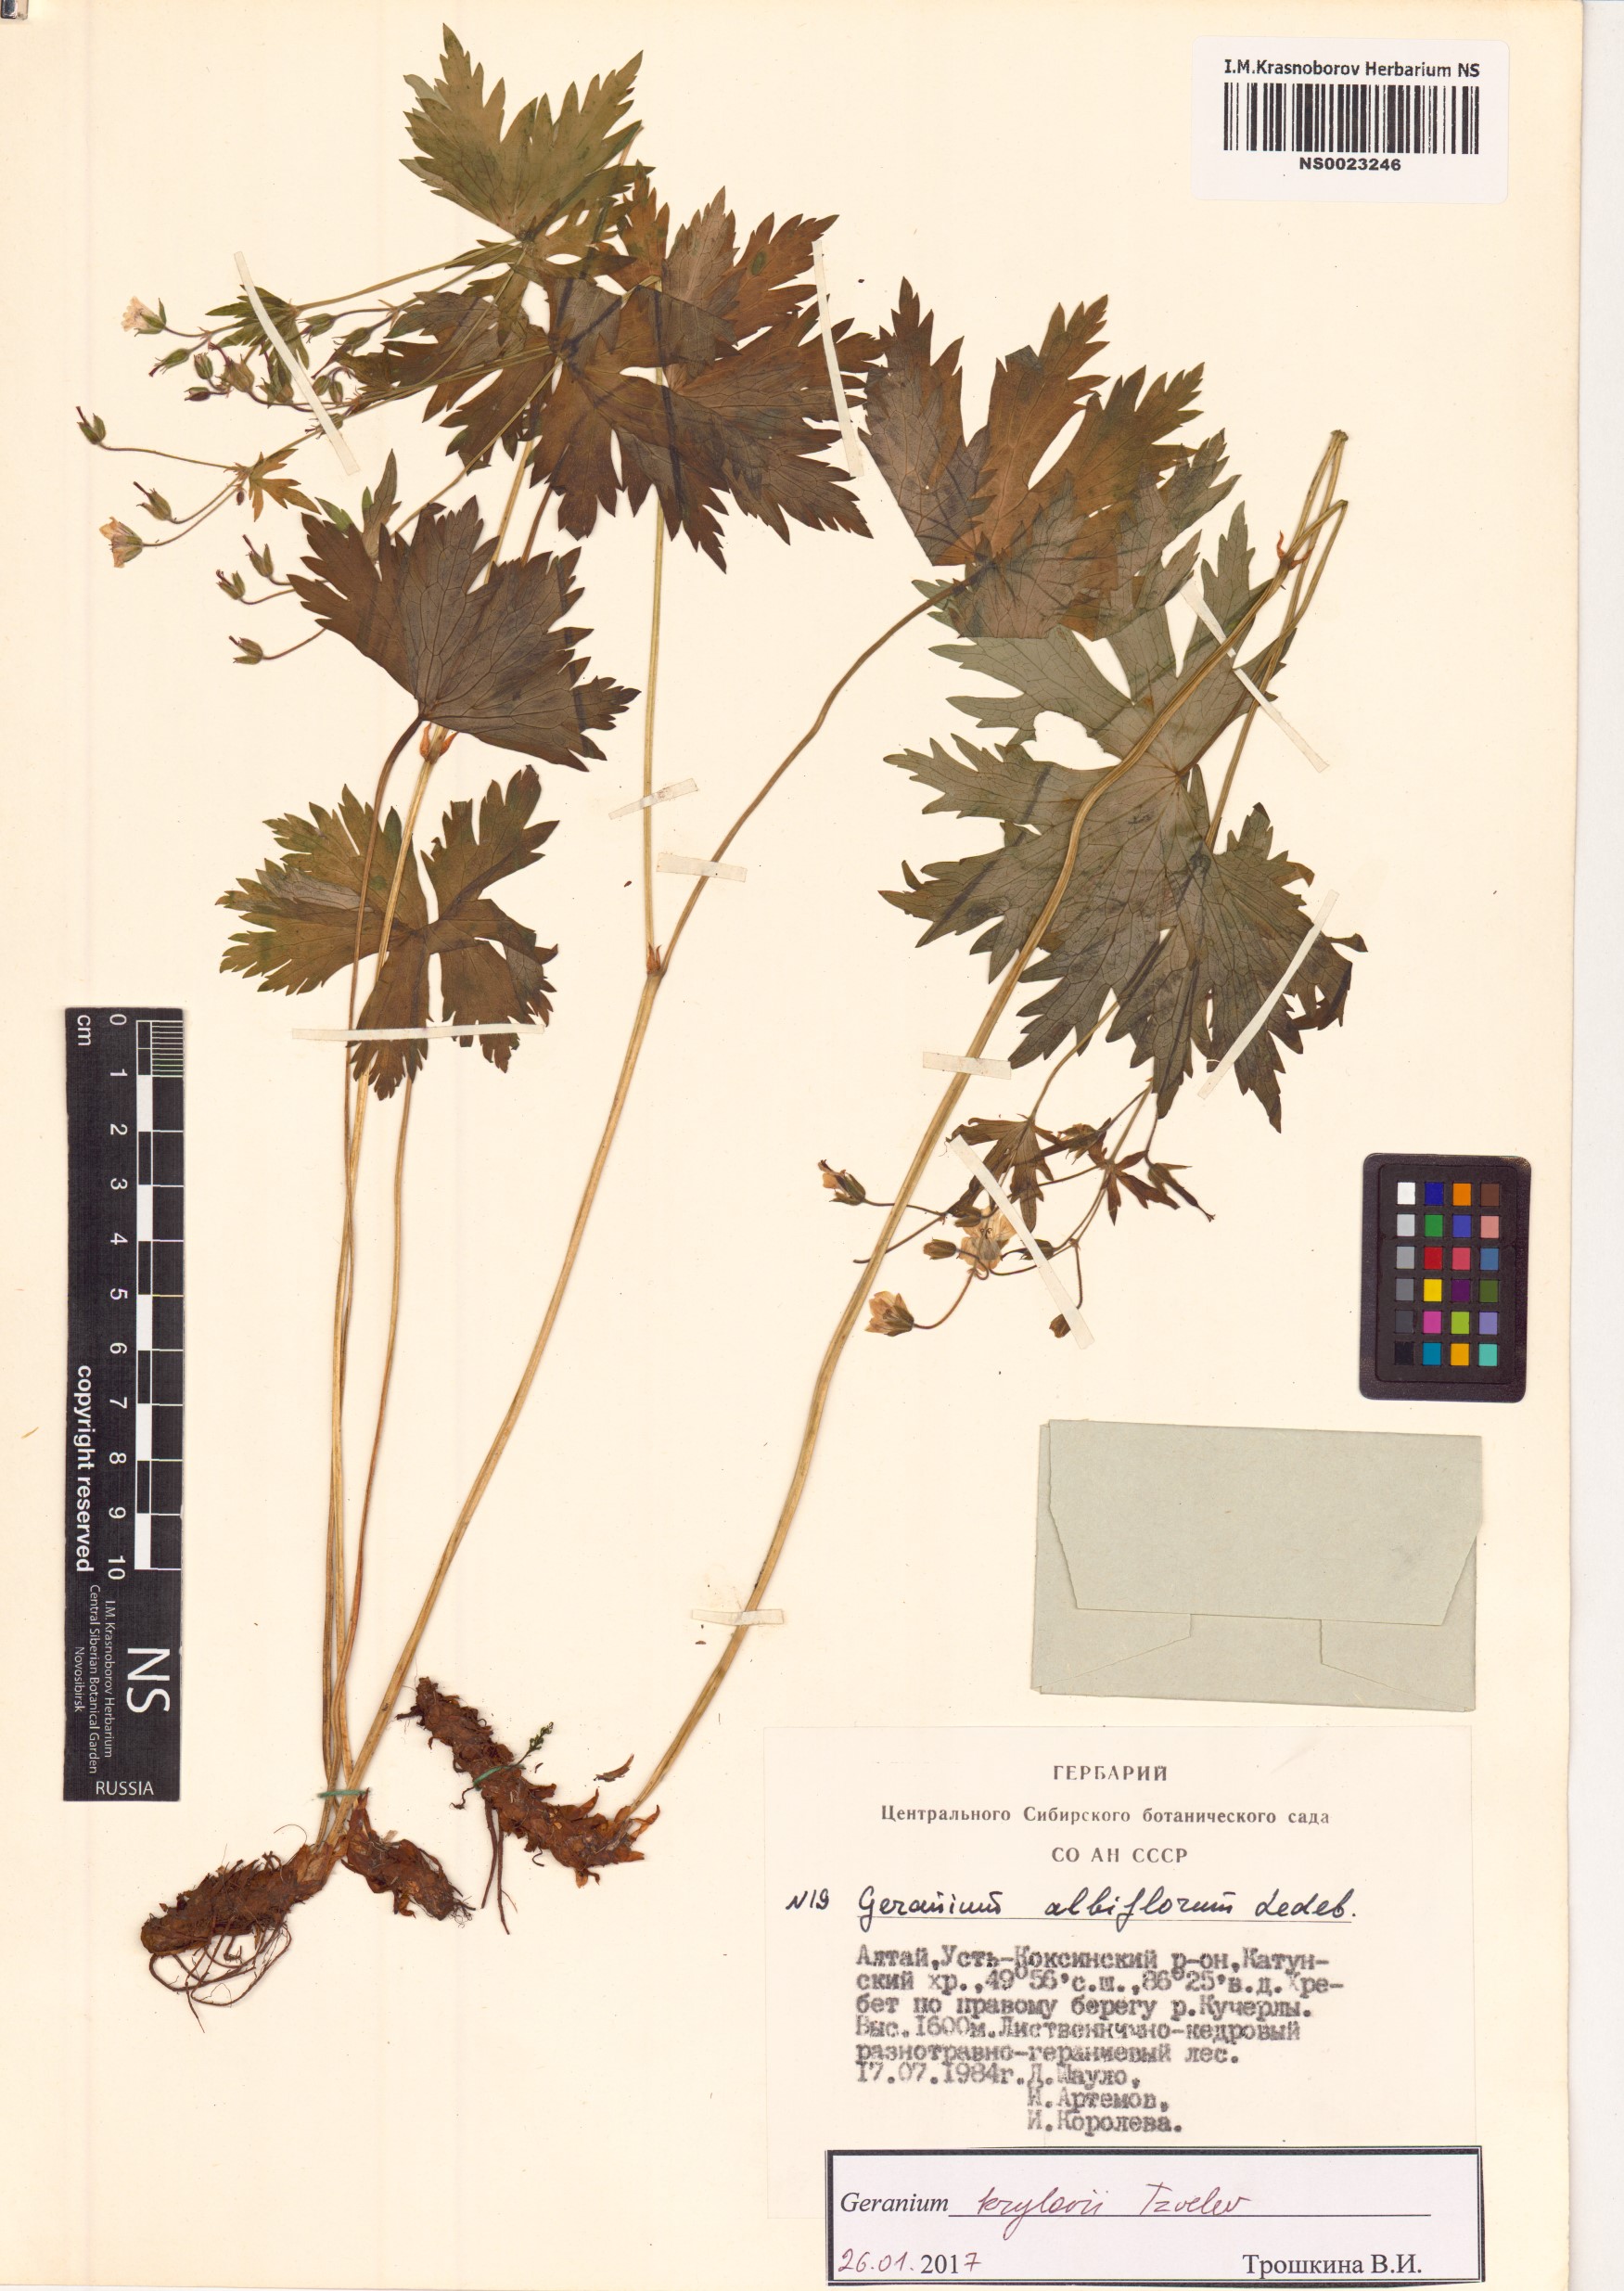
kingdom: Plantae
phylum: Tracheophyta
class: Magnoliopsida
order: Geraniales
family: Geraniaceae
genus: Geranium
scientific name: Geranium sylvaticum
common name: Wood crane's-bill
